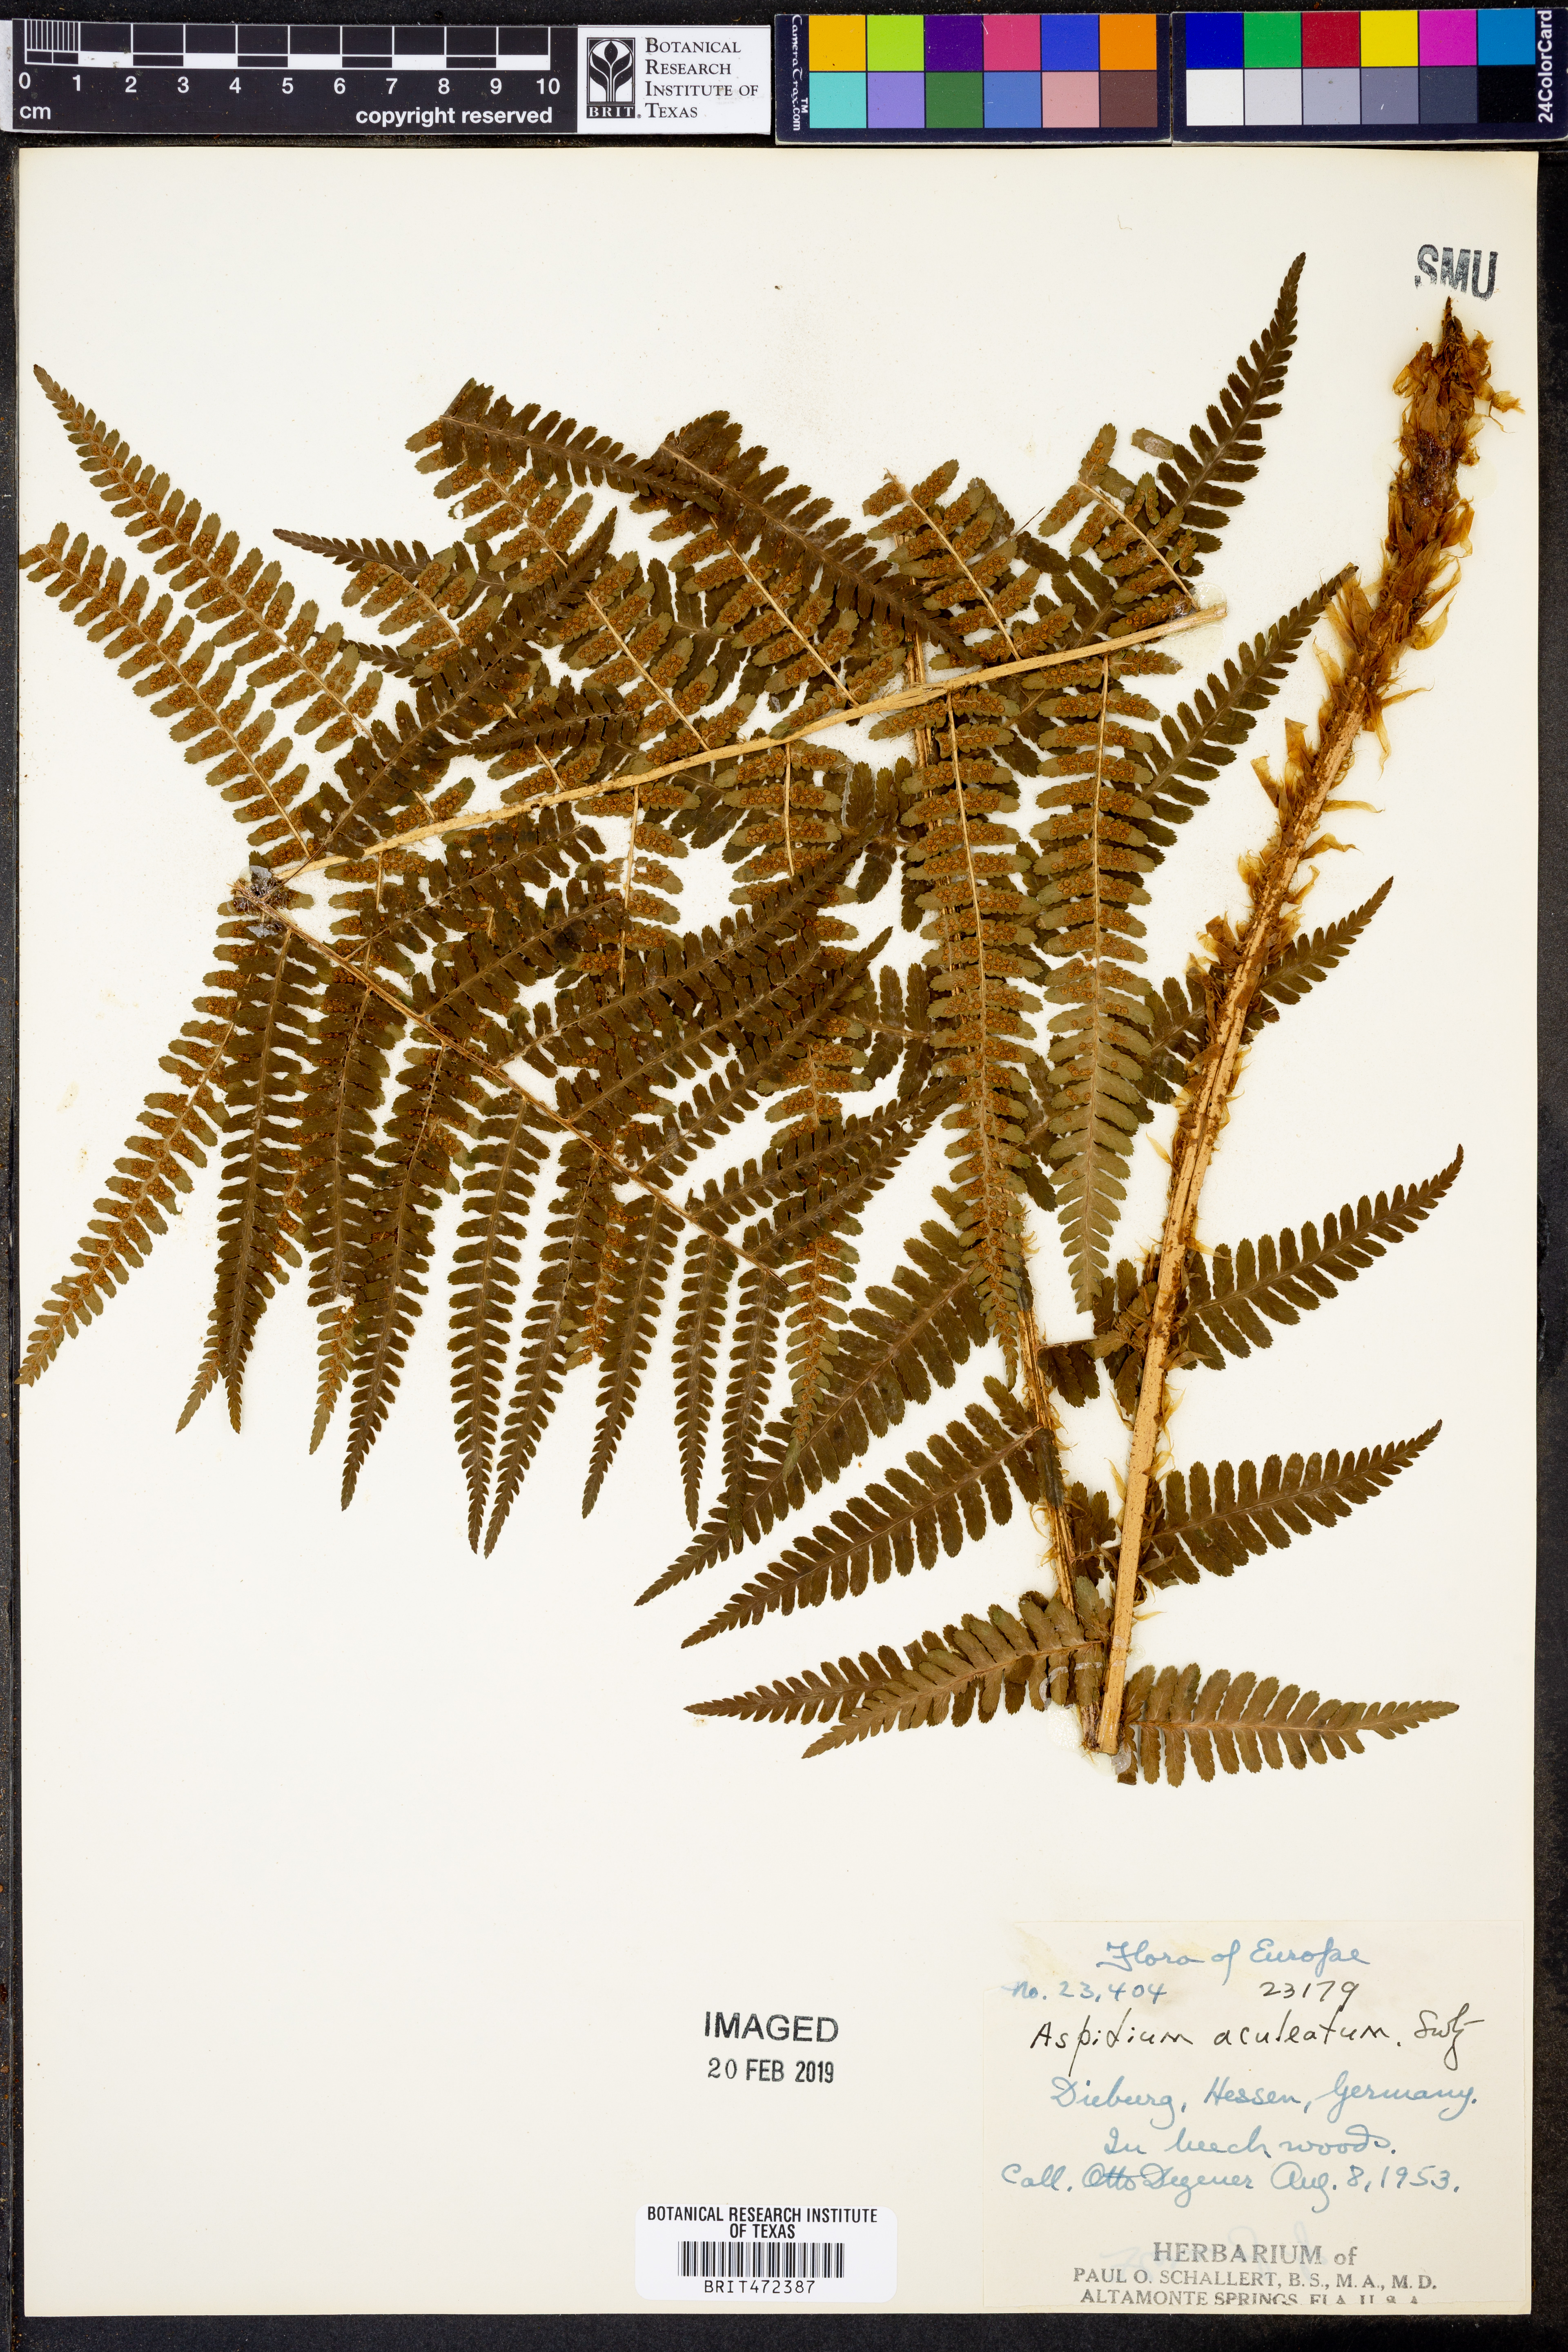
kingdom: Plantae
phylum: Tracheophyta
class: Polypodiopsida
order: Polypodiales
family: Dryopteridaceae
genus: Polystichum
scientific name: Polystichum aculeatum
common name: Hard shield-fern
